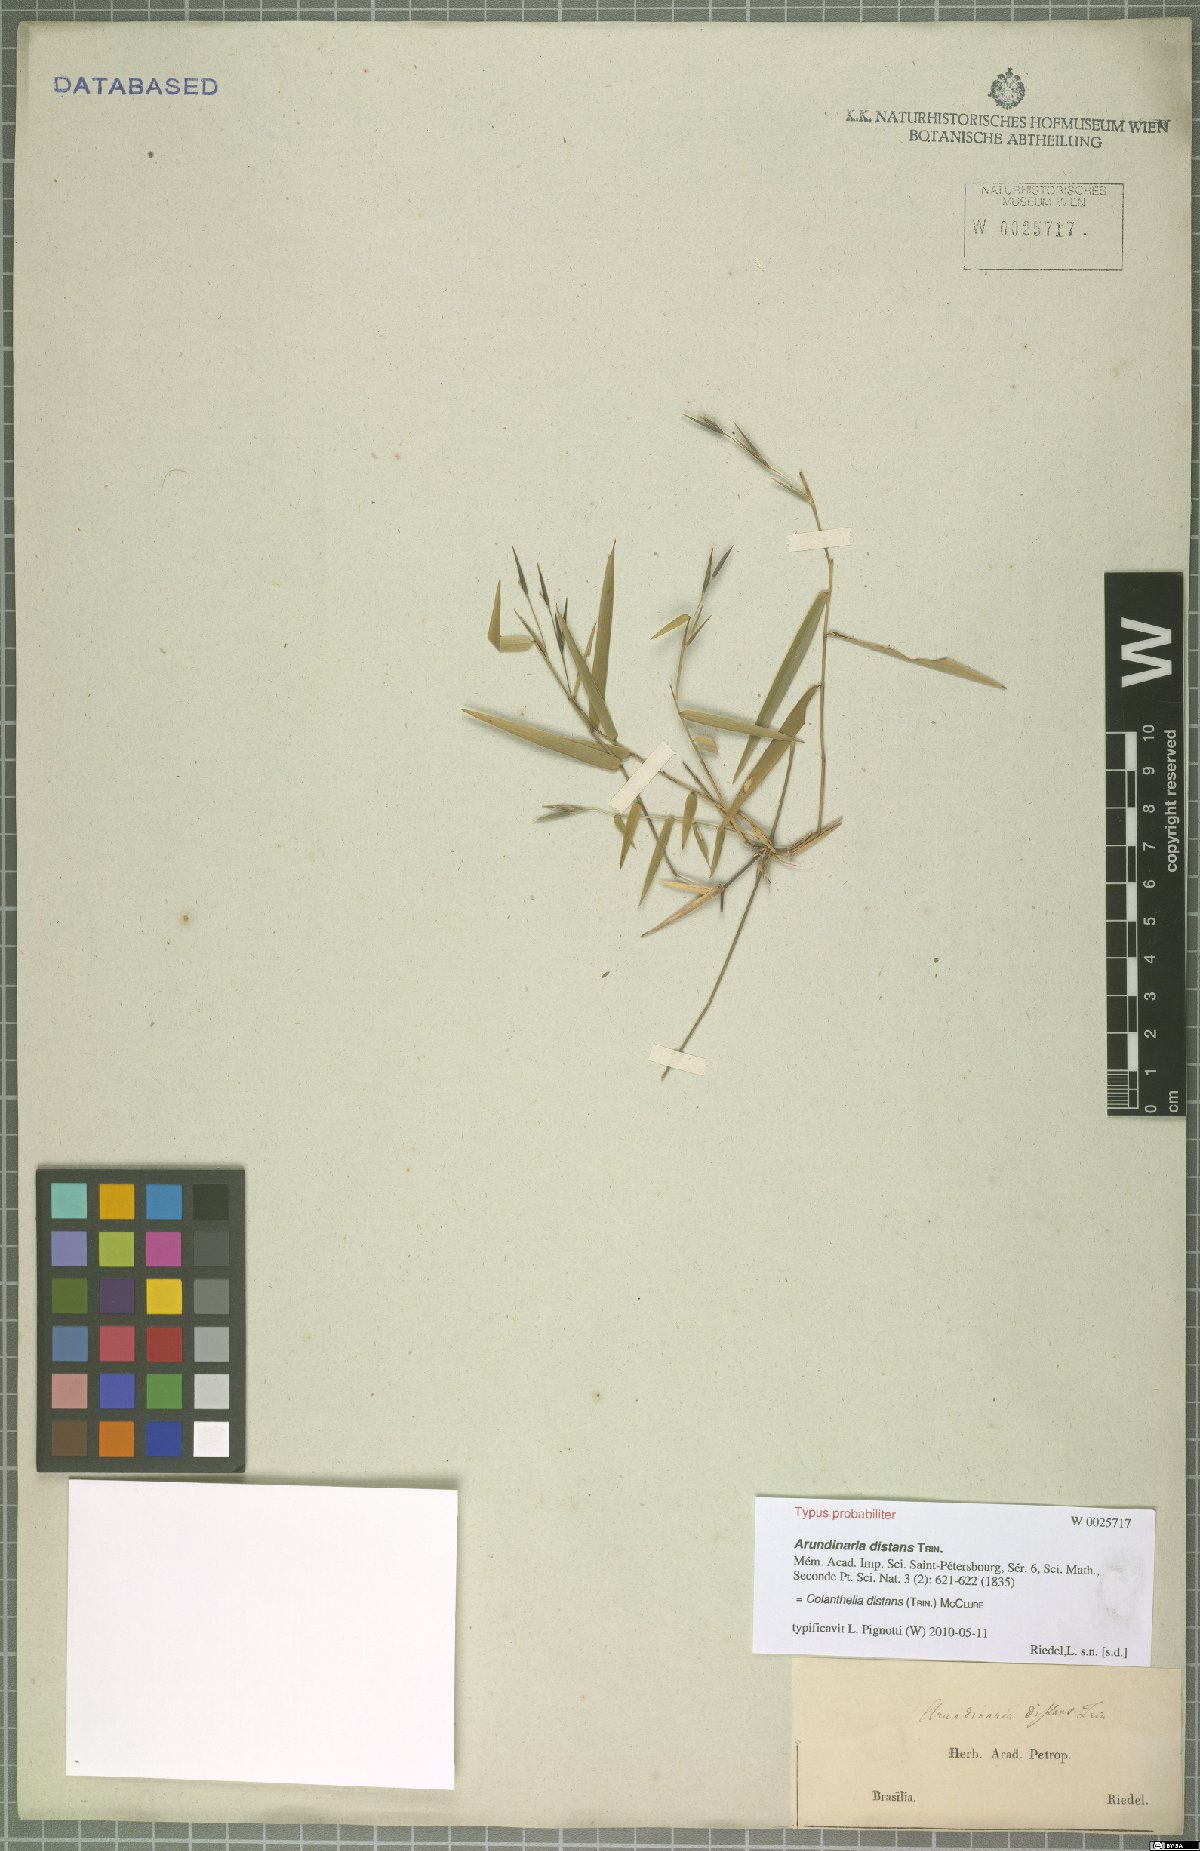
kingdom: Plantae
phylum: Tracheophyta
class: Liliopsida
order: Poales
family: Poaceae
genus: Colanthelia
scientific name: Colanthelia distans
